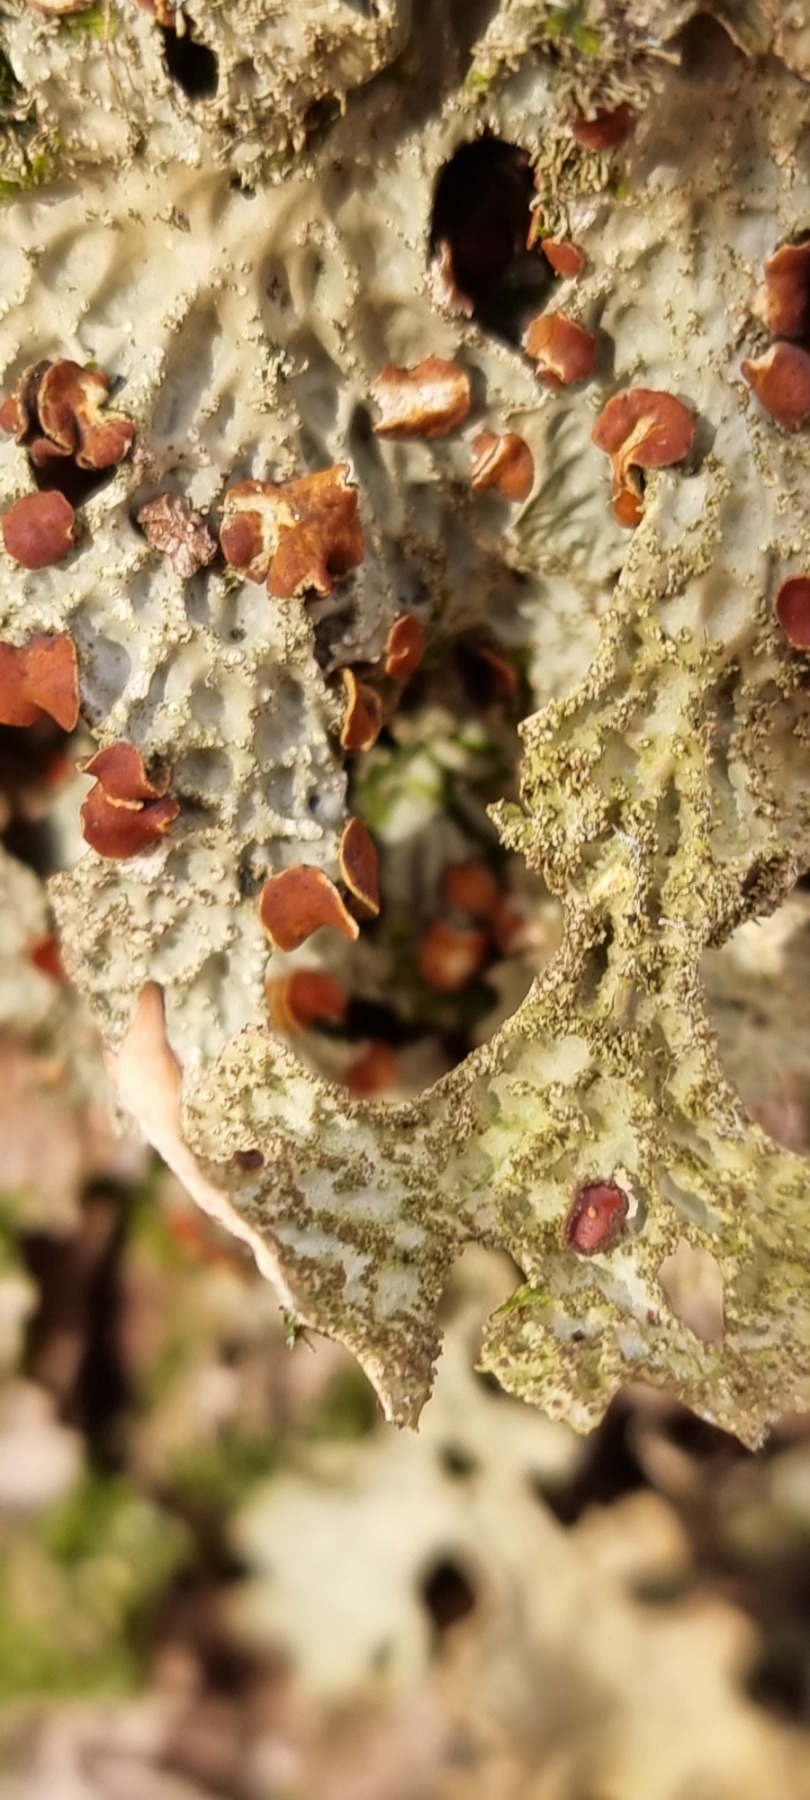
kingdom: Fungi
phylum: Ascomycota
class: Lecanoromycetes
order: Peltigerales
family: Lobariaceae
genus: Lobaria
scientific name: Lobaria pulmonaria
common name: Almindelig lungelav
